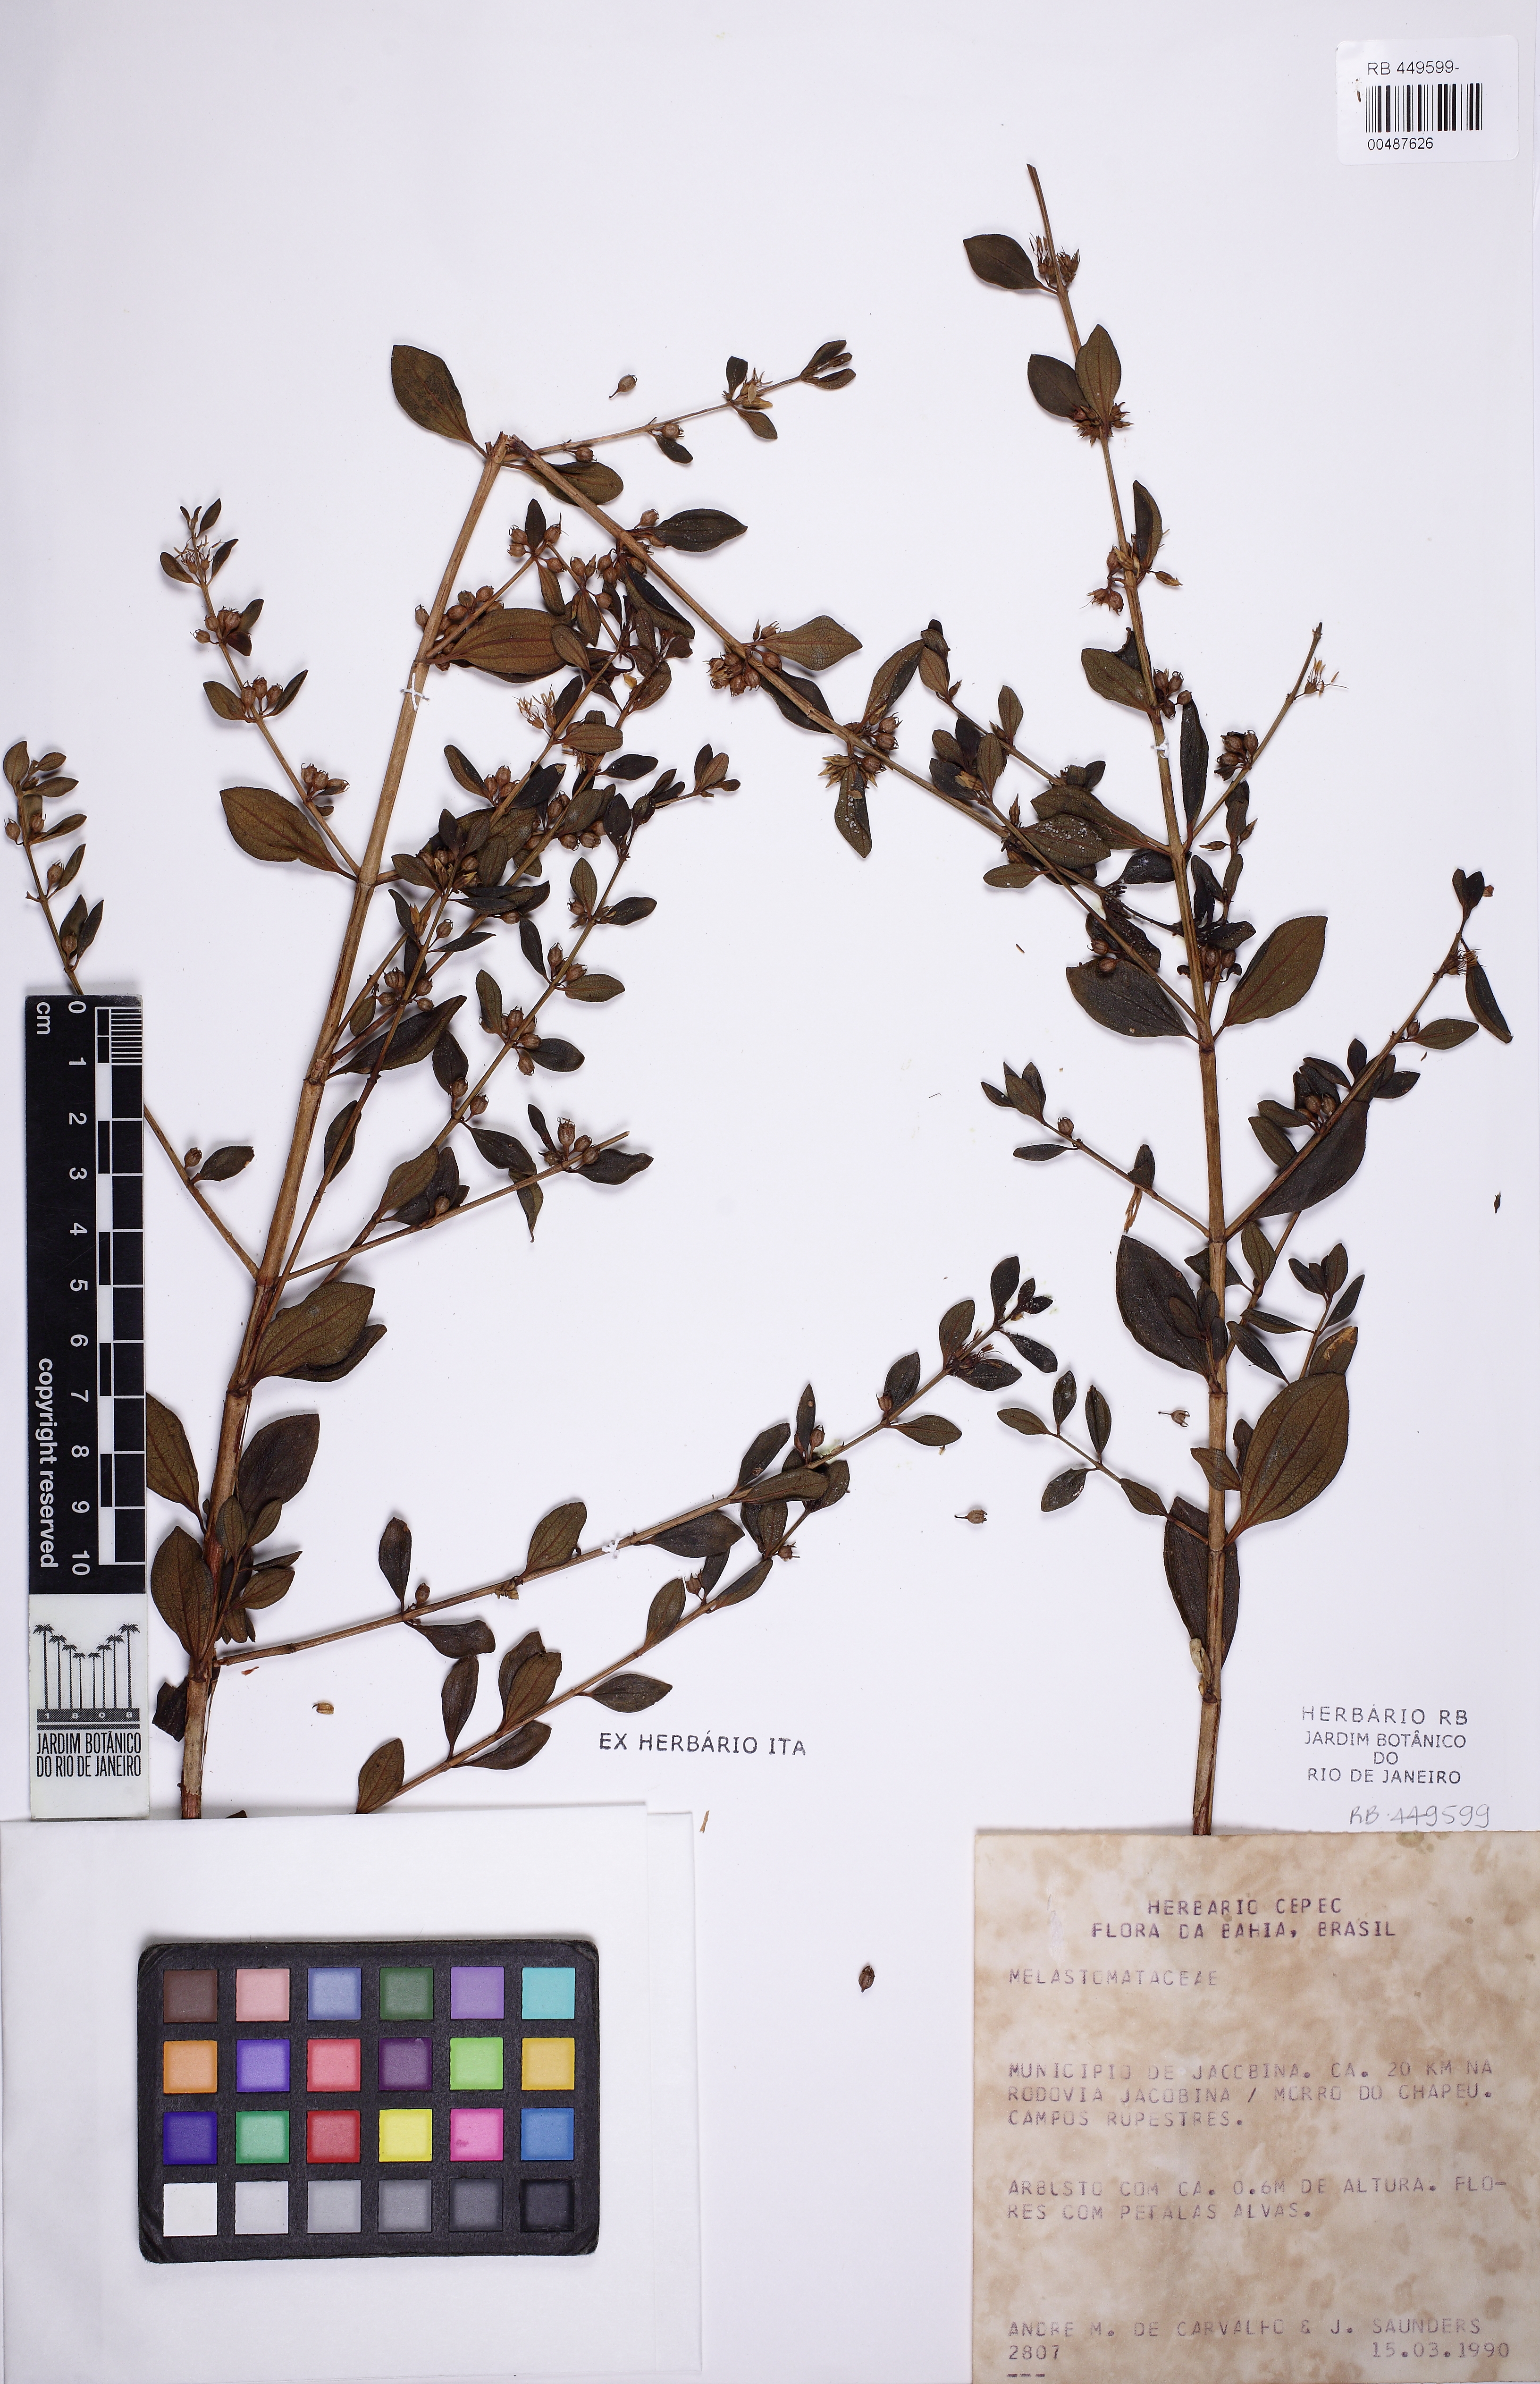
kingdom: Plantae
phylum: Tracheophyta
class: Magnoliopsida
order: Myrtales
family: Melastomataceae
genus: Microlicia
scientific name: Microlicia parviflora
